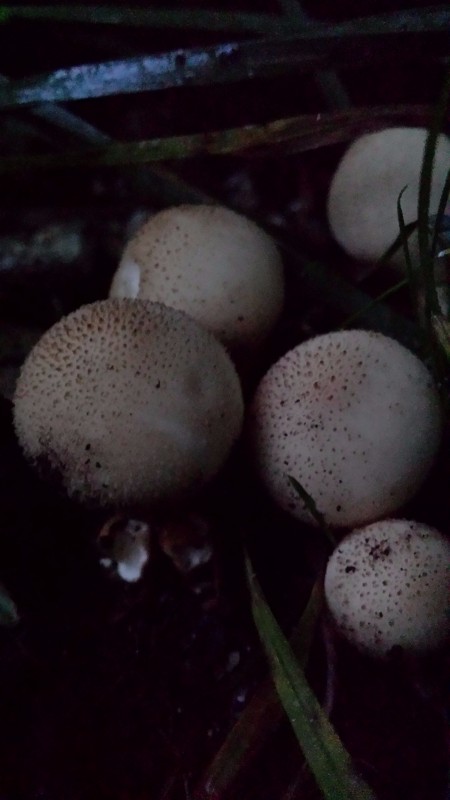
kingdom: Fungi
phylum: Basidiomycota
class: Agaricomycetes
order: Agaricales
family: Lycoperdaceae
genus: Apioperdon
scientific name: Apioperdon pyriforme
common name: pære-støvbold
